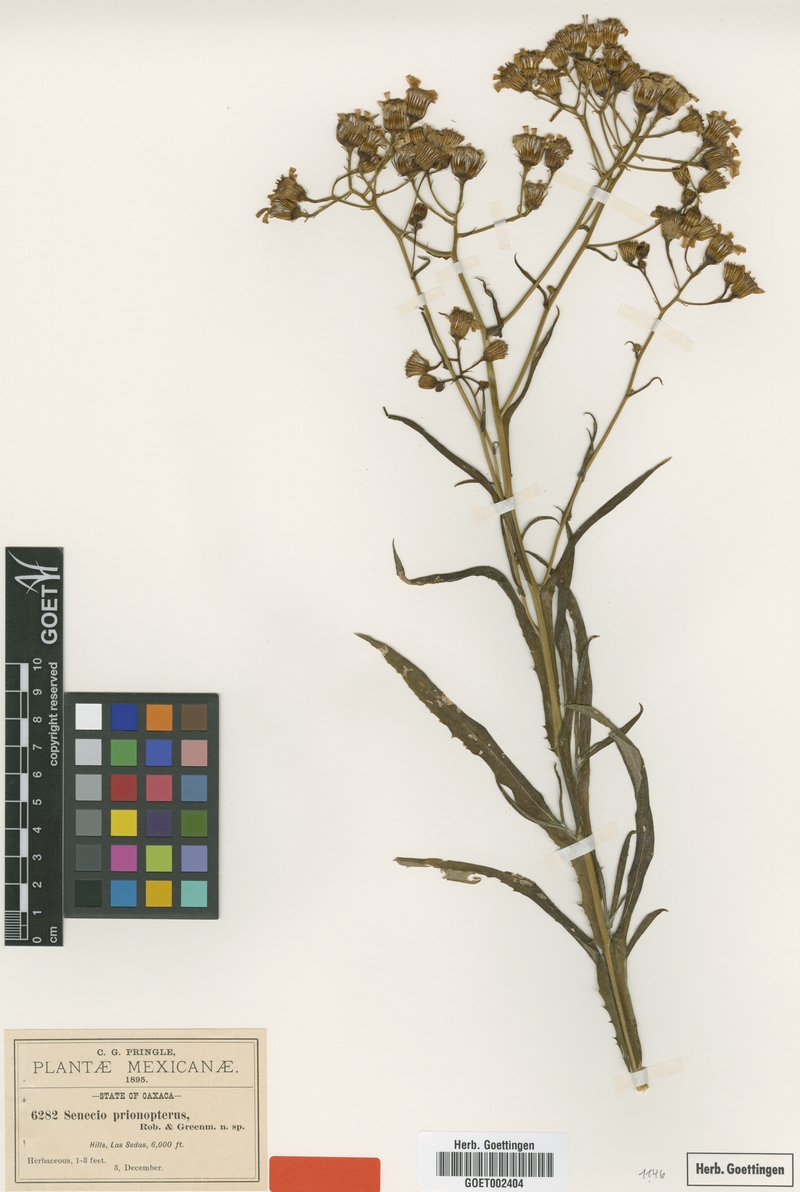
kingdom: Plantae
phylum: Tracheophyta
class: Magnoliopsida
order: Asterales
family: Asteraceae
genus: Senecio
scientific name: Senecio prionopterus
